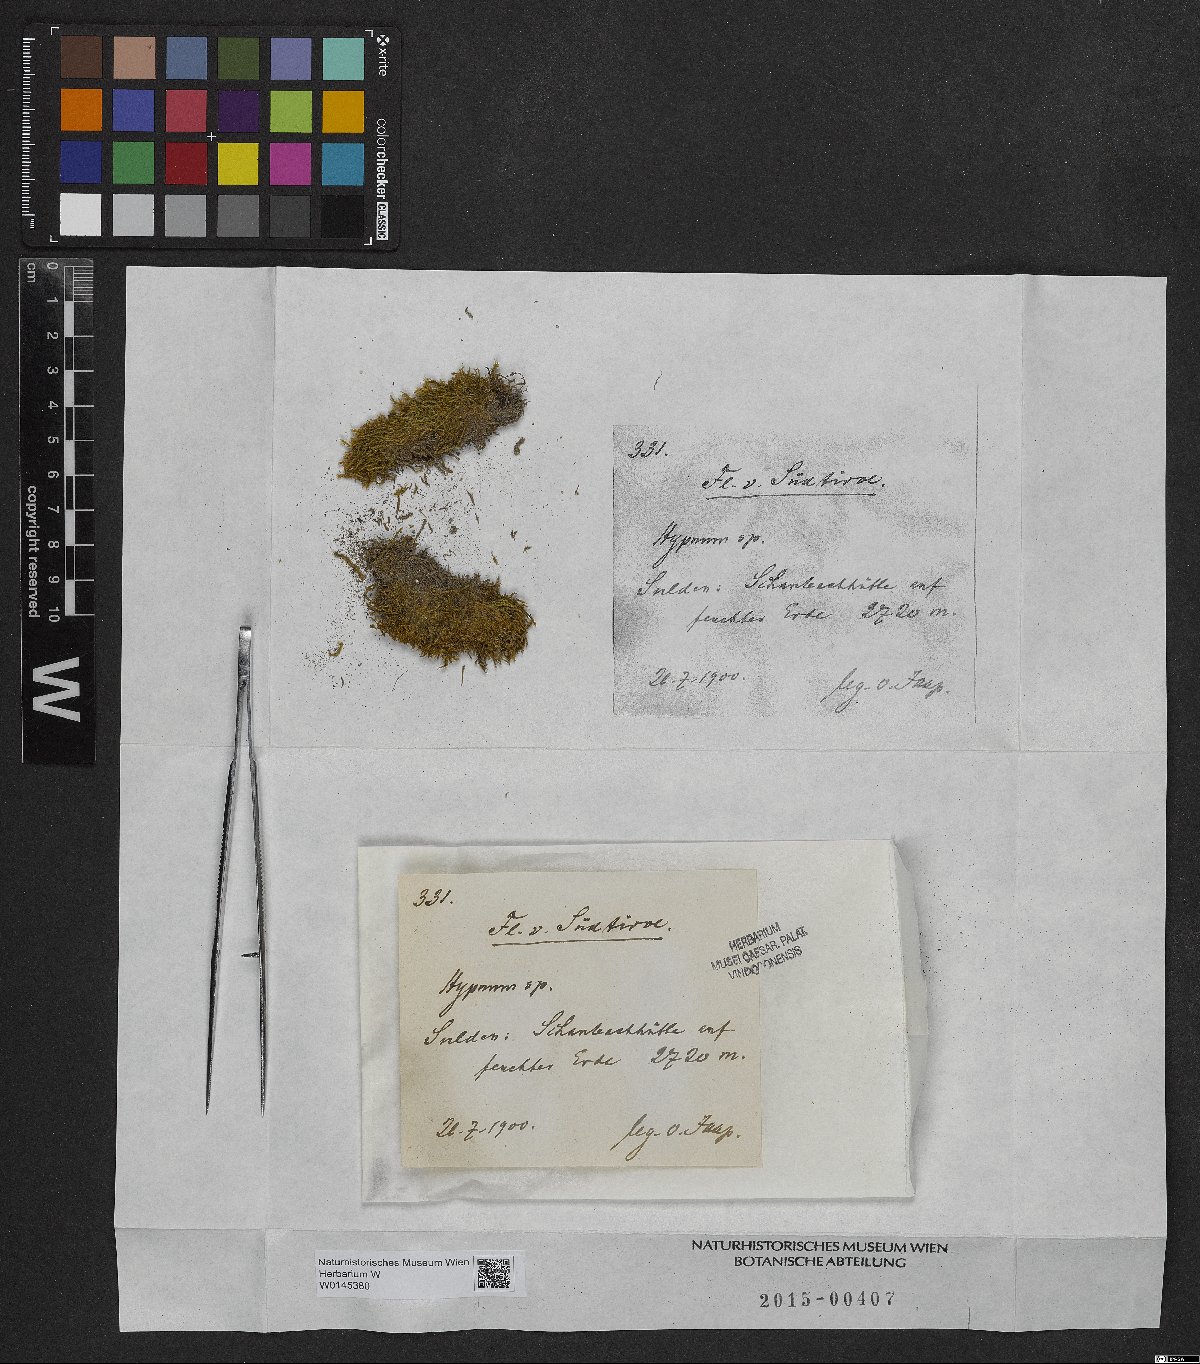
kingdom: Plantae
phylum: Bryophyta
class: Bryopsida
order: Hypnales
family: Hypnaceae
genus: Hypnum
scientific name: Hypnum
